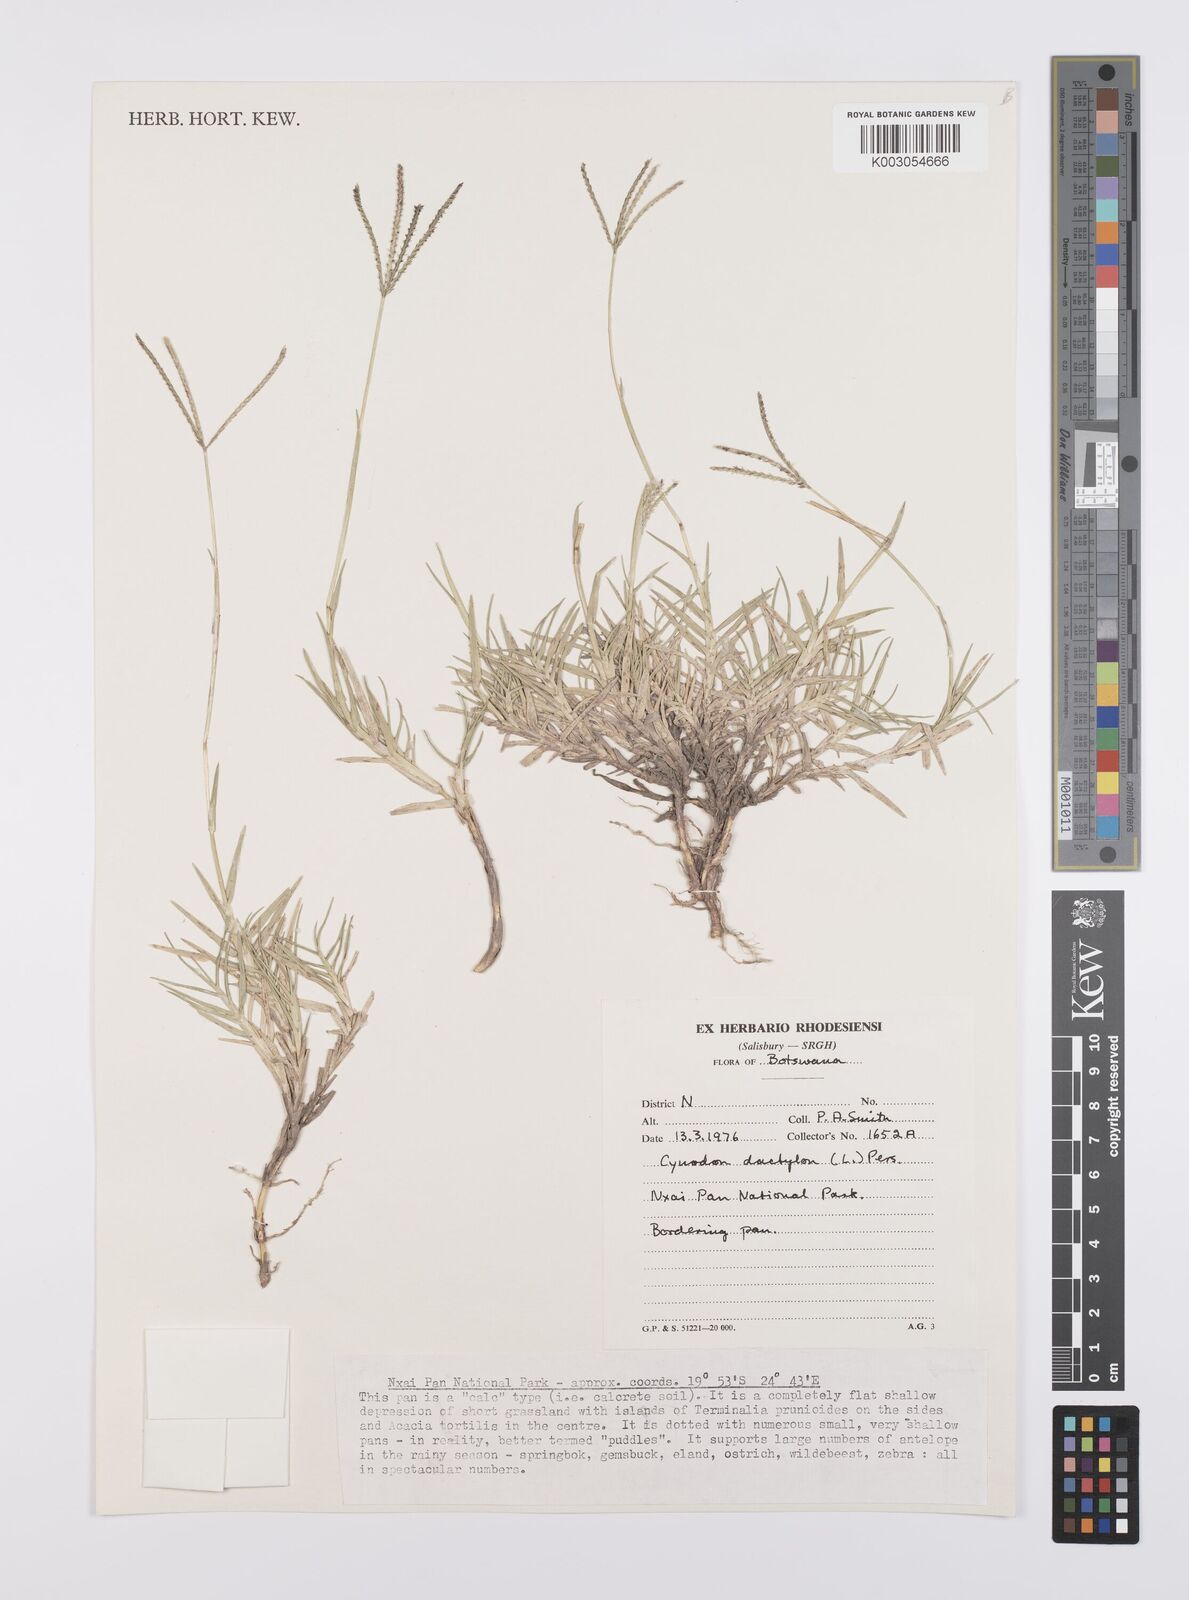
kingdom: Plantae
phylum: Tracheophyta
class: Liliopsida
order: Poales
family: Poaceae
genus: Cynodon
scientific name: Cynodon dactylon
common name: Bermuda grass
